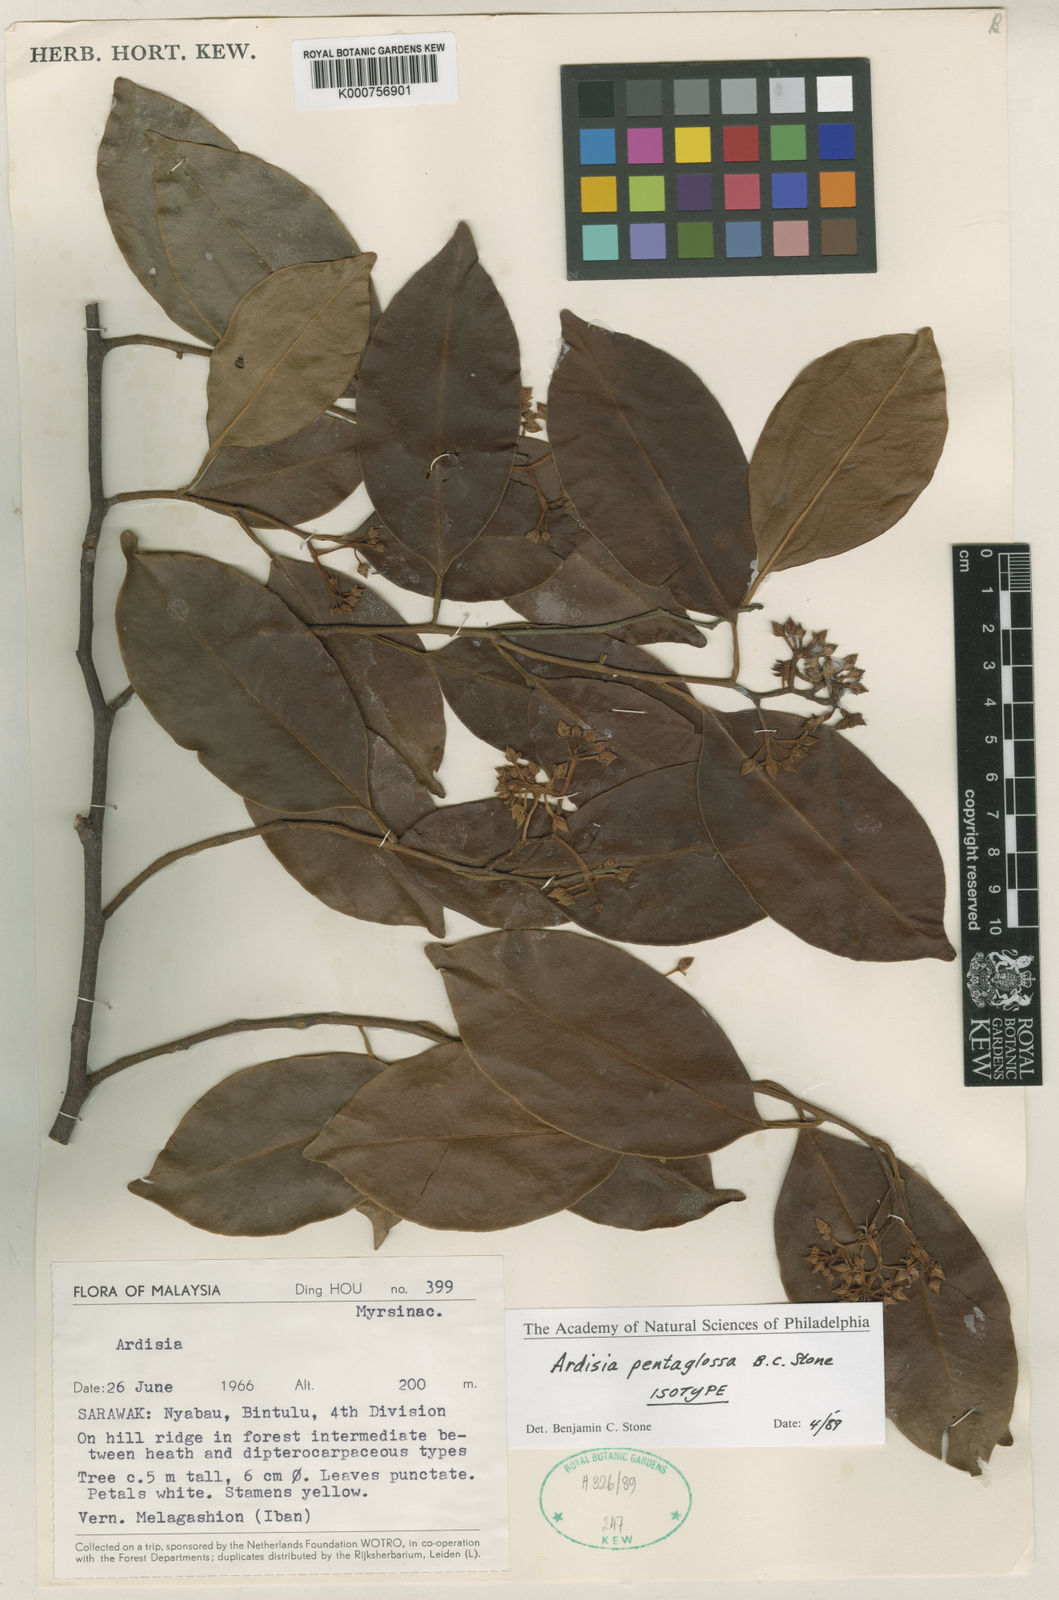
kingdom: Plantae
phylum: Tracheophyta
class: Magnoliopsida
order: Ericales
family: Primulaceae
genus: Ardisia
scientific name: Ardisia pentaglossa
